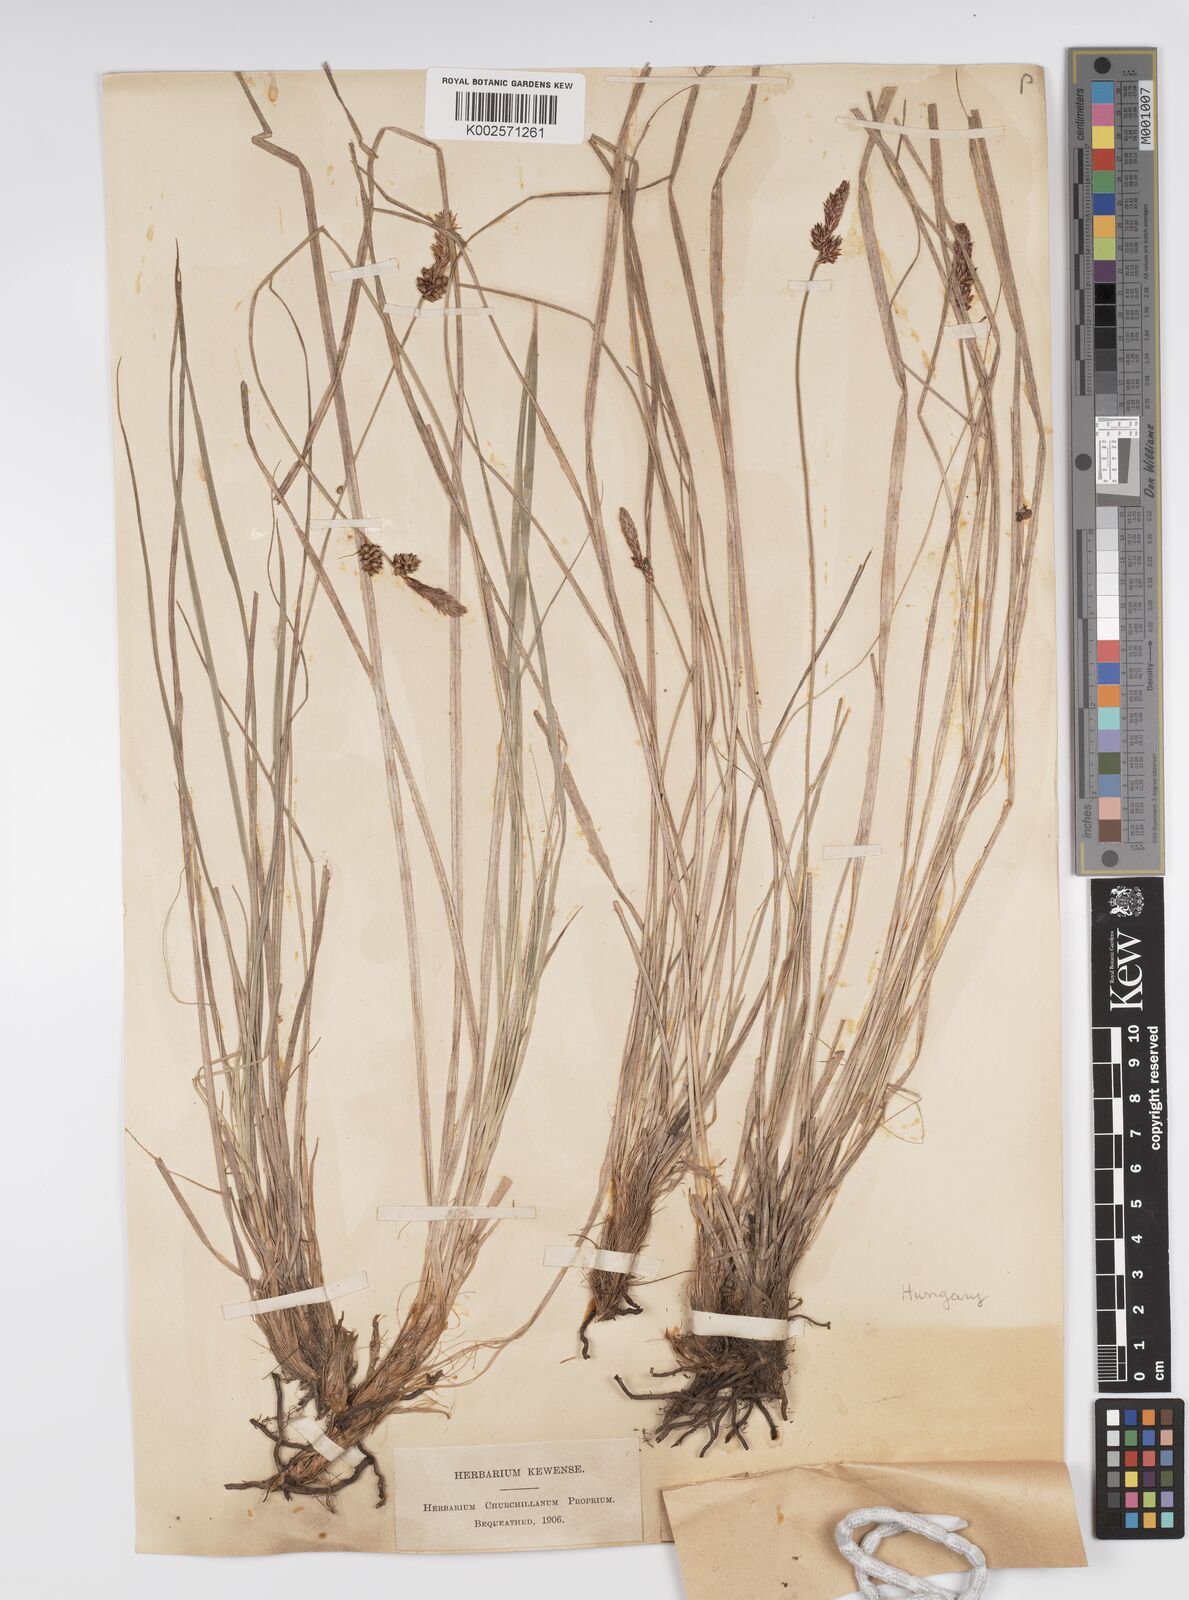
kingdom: Plantae
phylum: Tracheophyta
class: Liliopsida
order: Poales
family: Cyperaceae
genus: Carex
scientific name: Carex fritschii
